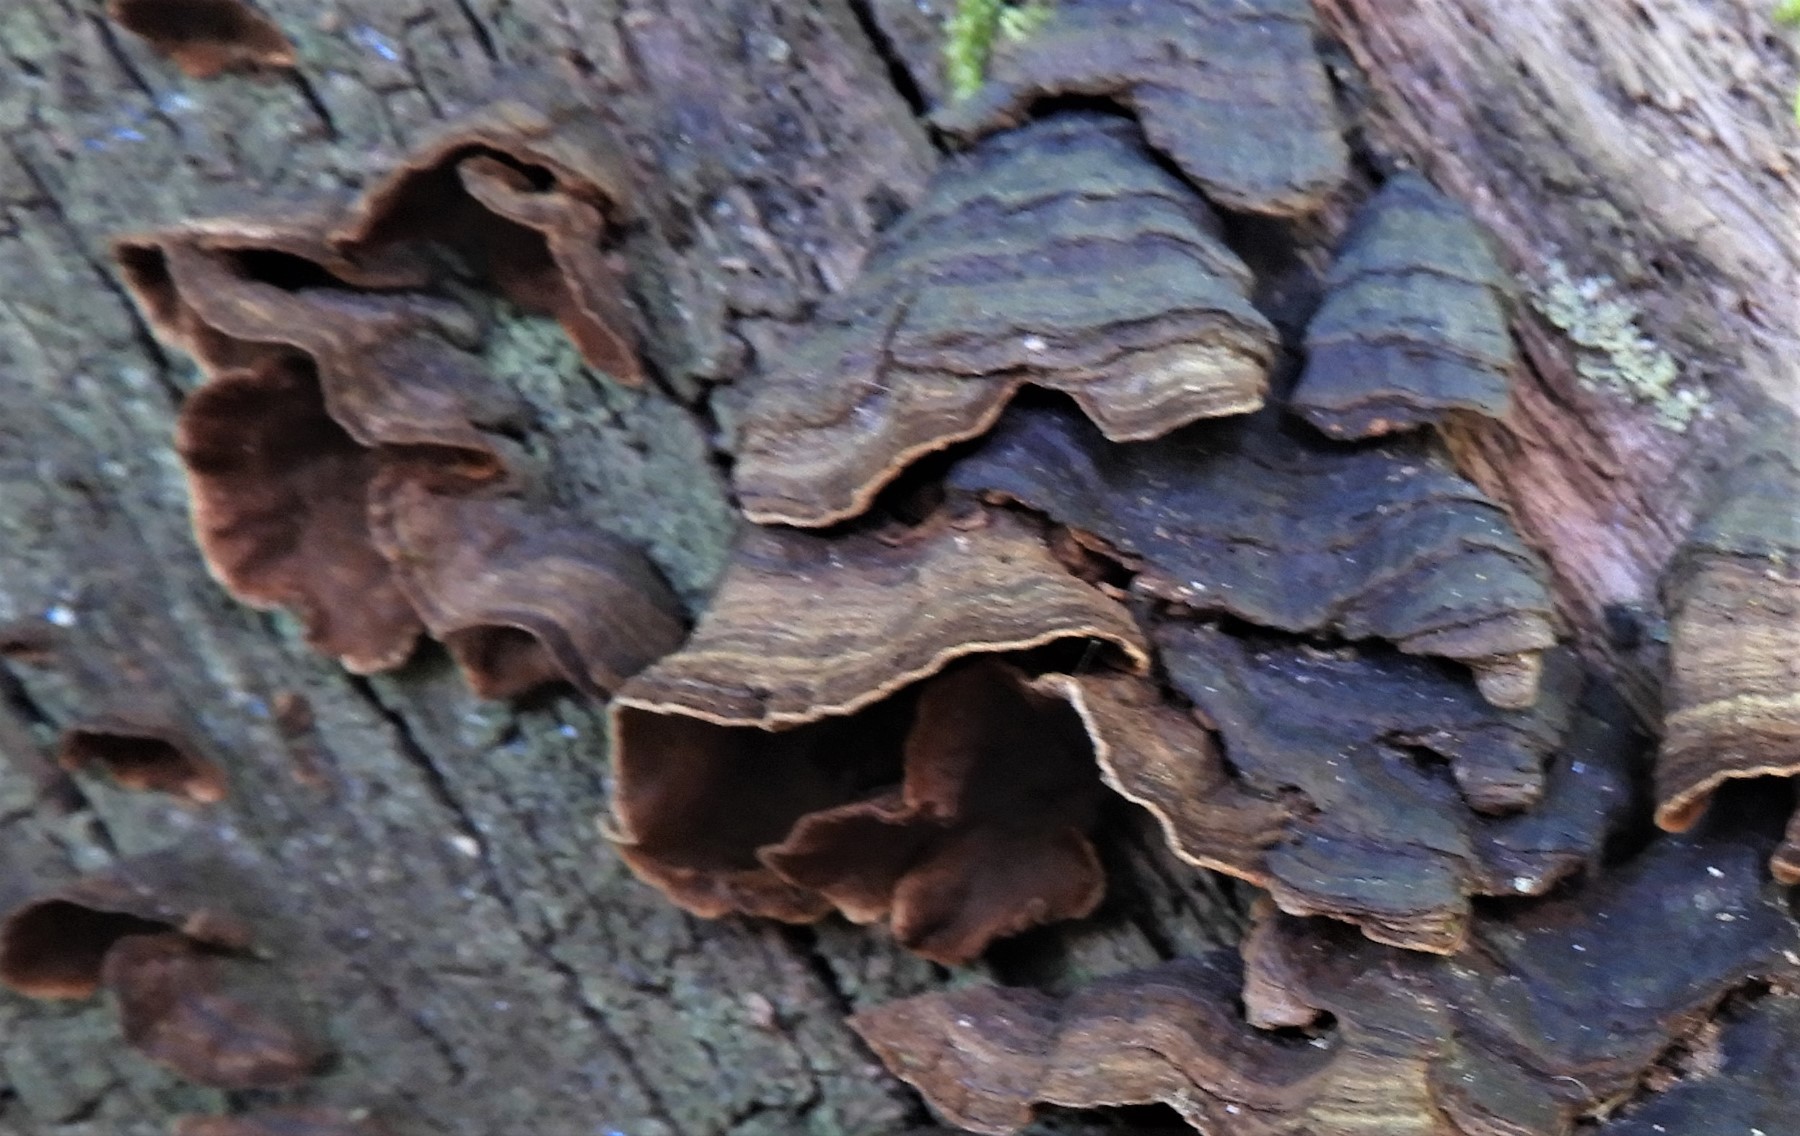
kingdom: Fungi
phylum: Basidiomycota
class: Agaricomycetes
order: Hymenochaetales
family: Hymenochaetaceae
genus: Hymenochaete
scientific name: Hymenochaete rubiginosa
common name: stiv ruslædersvamp
